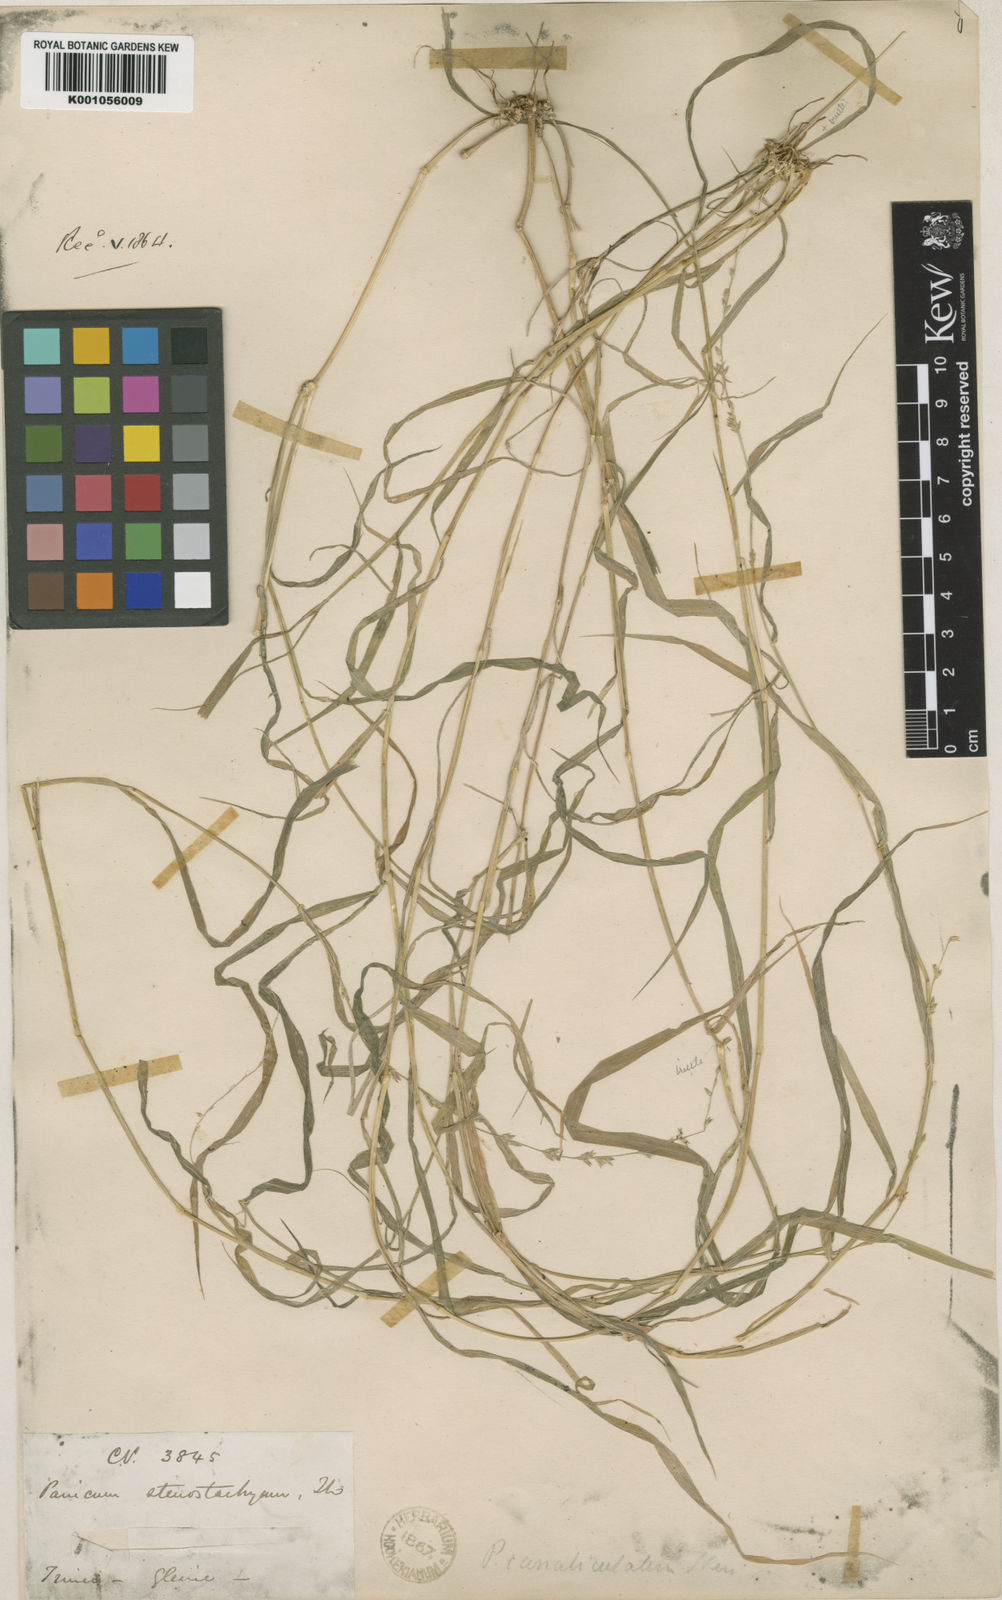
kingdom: Plantae
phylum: Tracheophyta
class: Liliopsida
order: Poales
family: Poaceae
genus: Holcolemma
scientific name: Holcolemma canaliculatum
